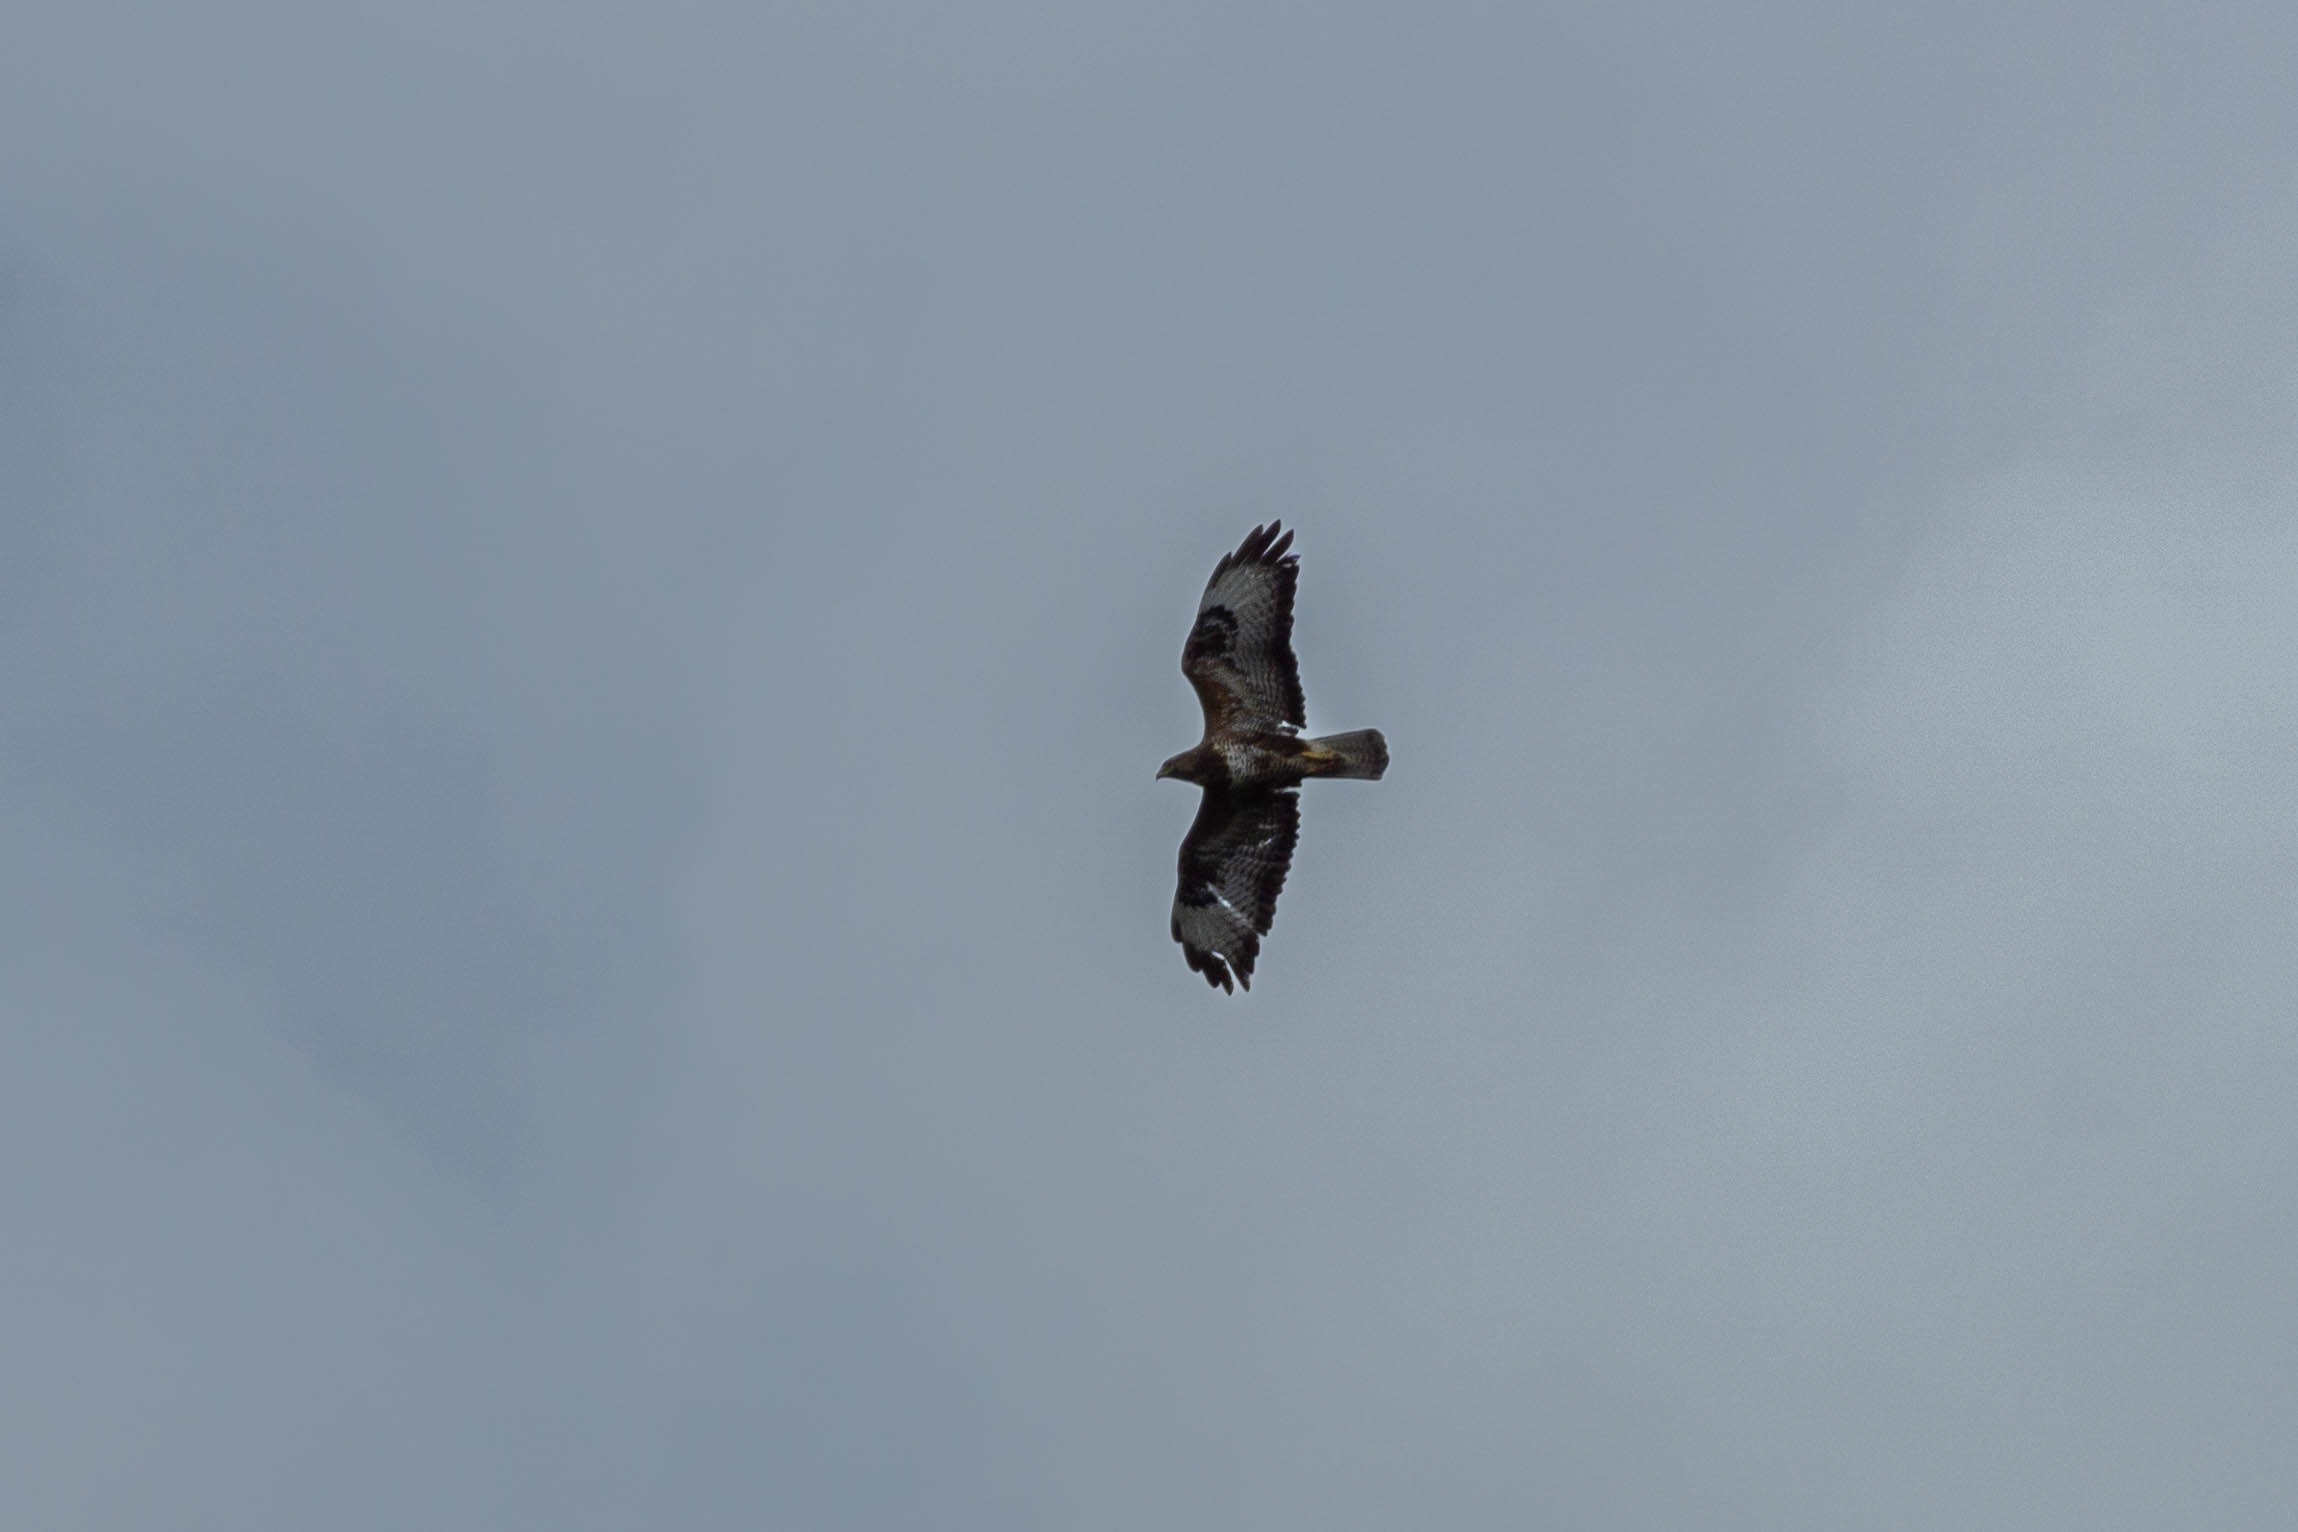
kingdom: Animalia
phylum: Chordata
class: Aves
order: Accipitriformes
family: Accipitridae
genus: Buteo
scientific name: Buteo buteo
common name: Musvåge
